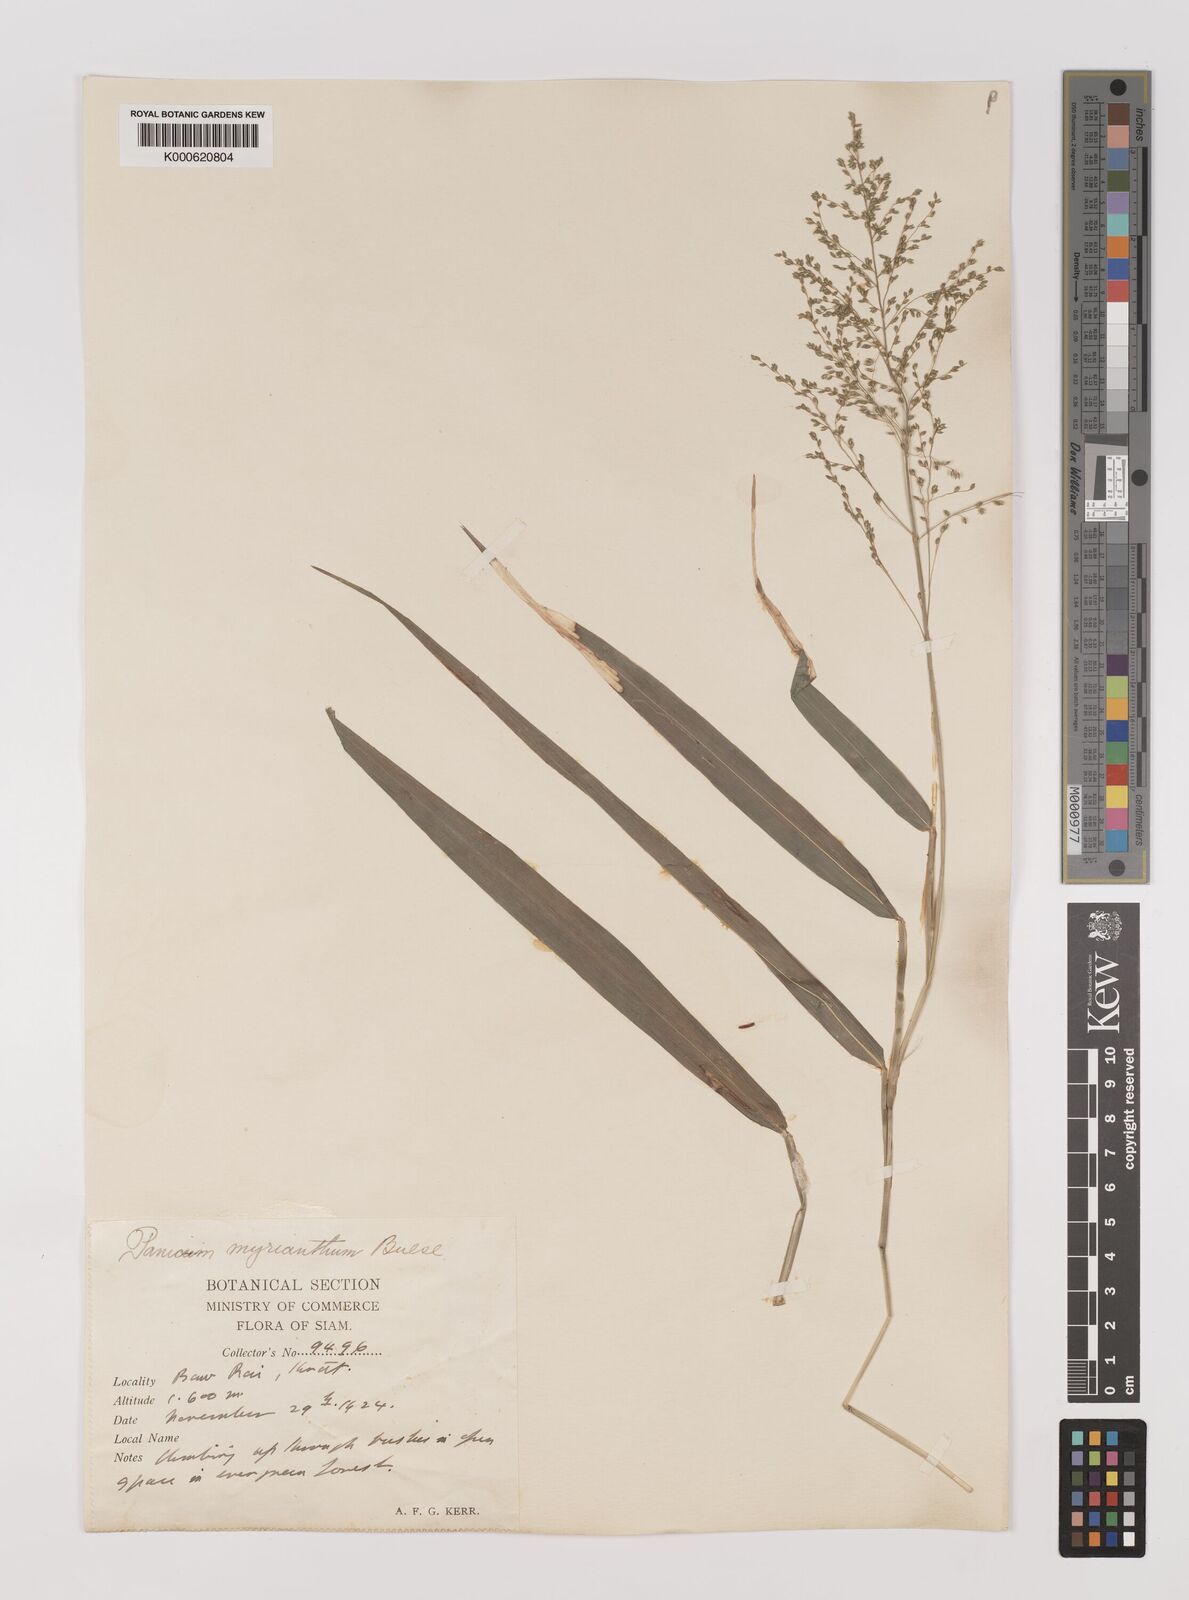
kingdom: Plantae
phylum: Tracheophyta
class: Liliopsida
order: Poales
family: Poaceae
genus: Panicum
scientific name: Panicum sarmentosum
